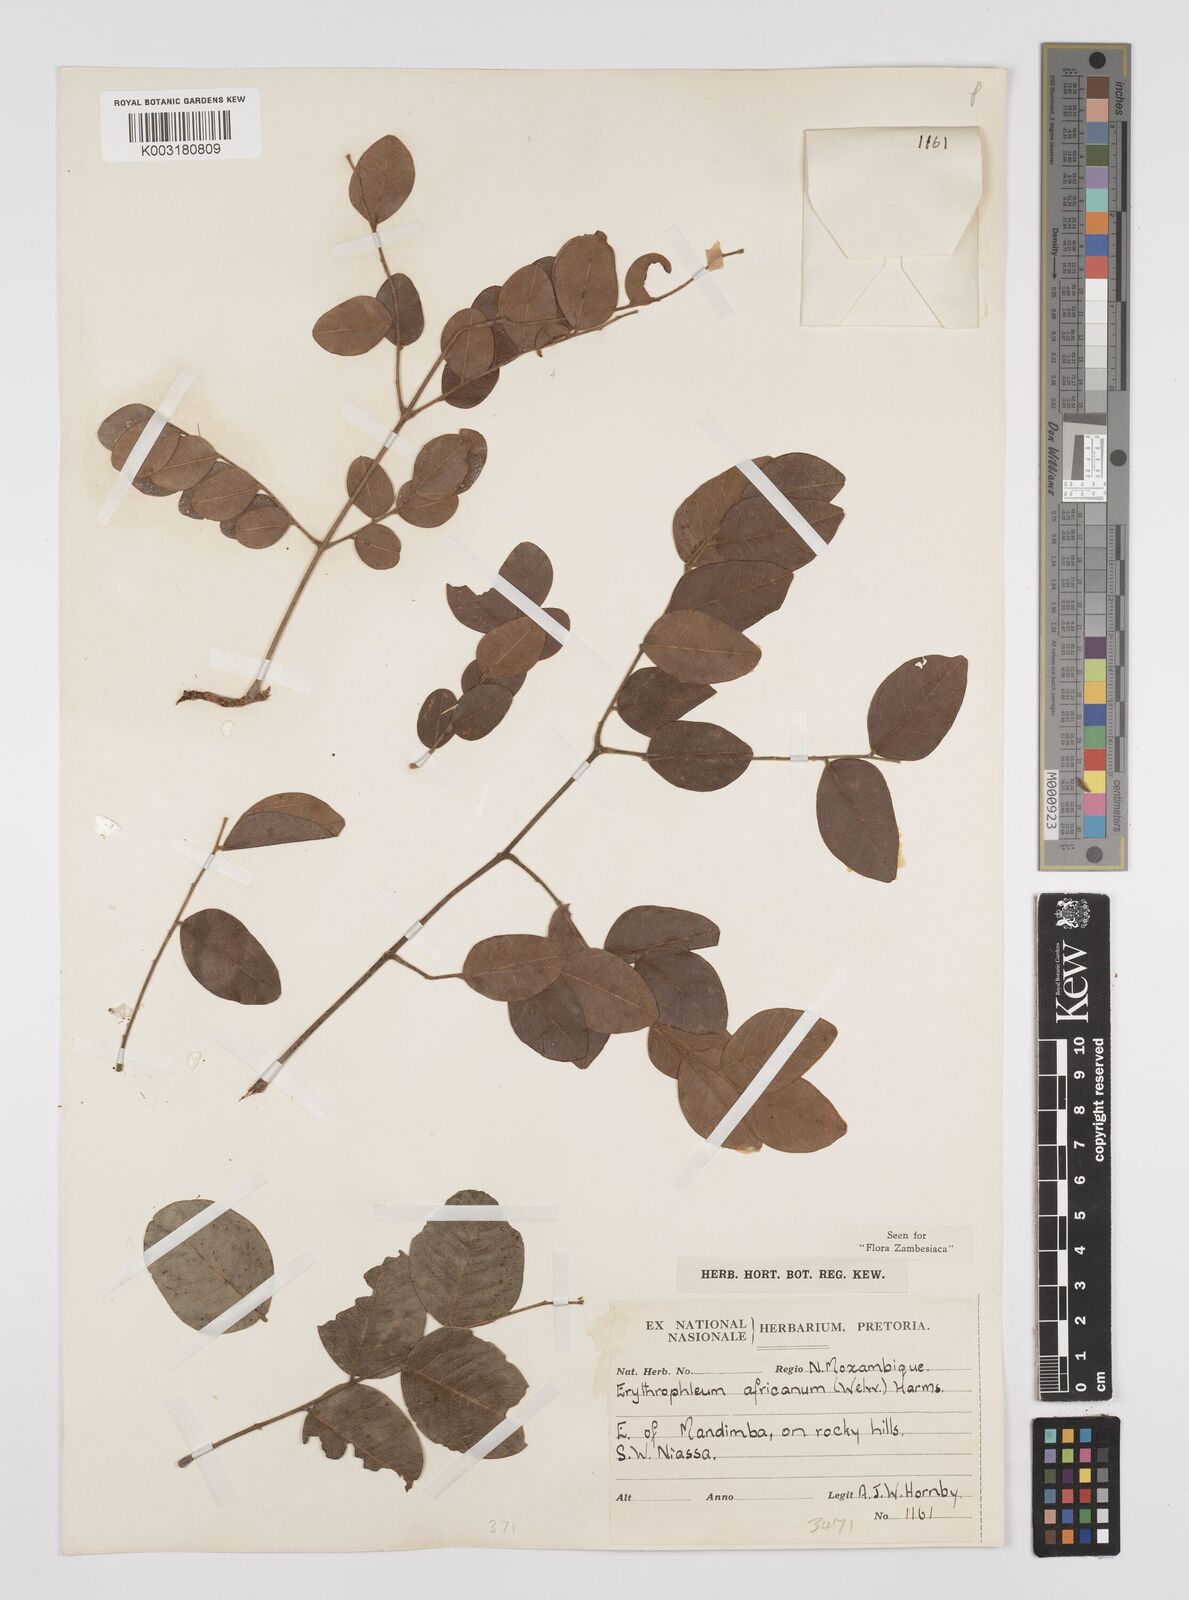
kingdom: Plantae
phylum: Tracheophyta
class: Magnoliopsida
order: Fabales
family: Fabaceae
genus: Peltophorum
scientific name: Peltophorum africanum
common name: African black wattle
